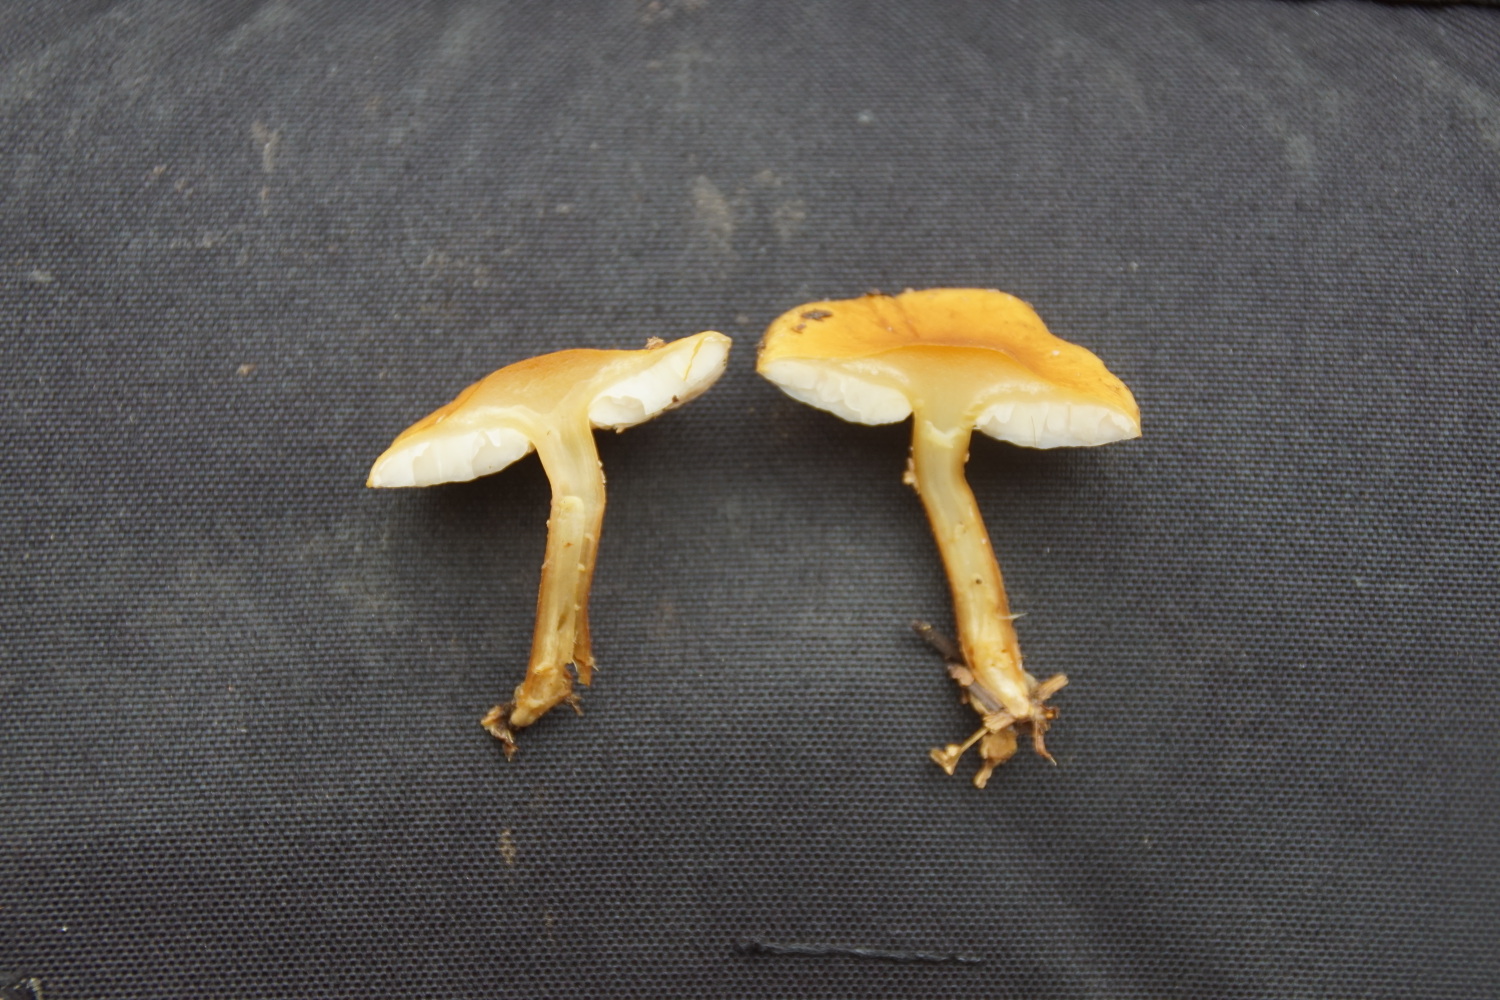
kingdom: Fungi
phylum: Basidiomycota
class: Agaricomycetes
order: Agaricales
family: Tricholomataceae
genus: Cystoderma
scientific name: Cystoderma
